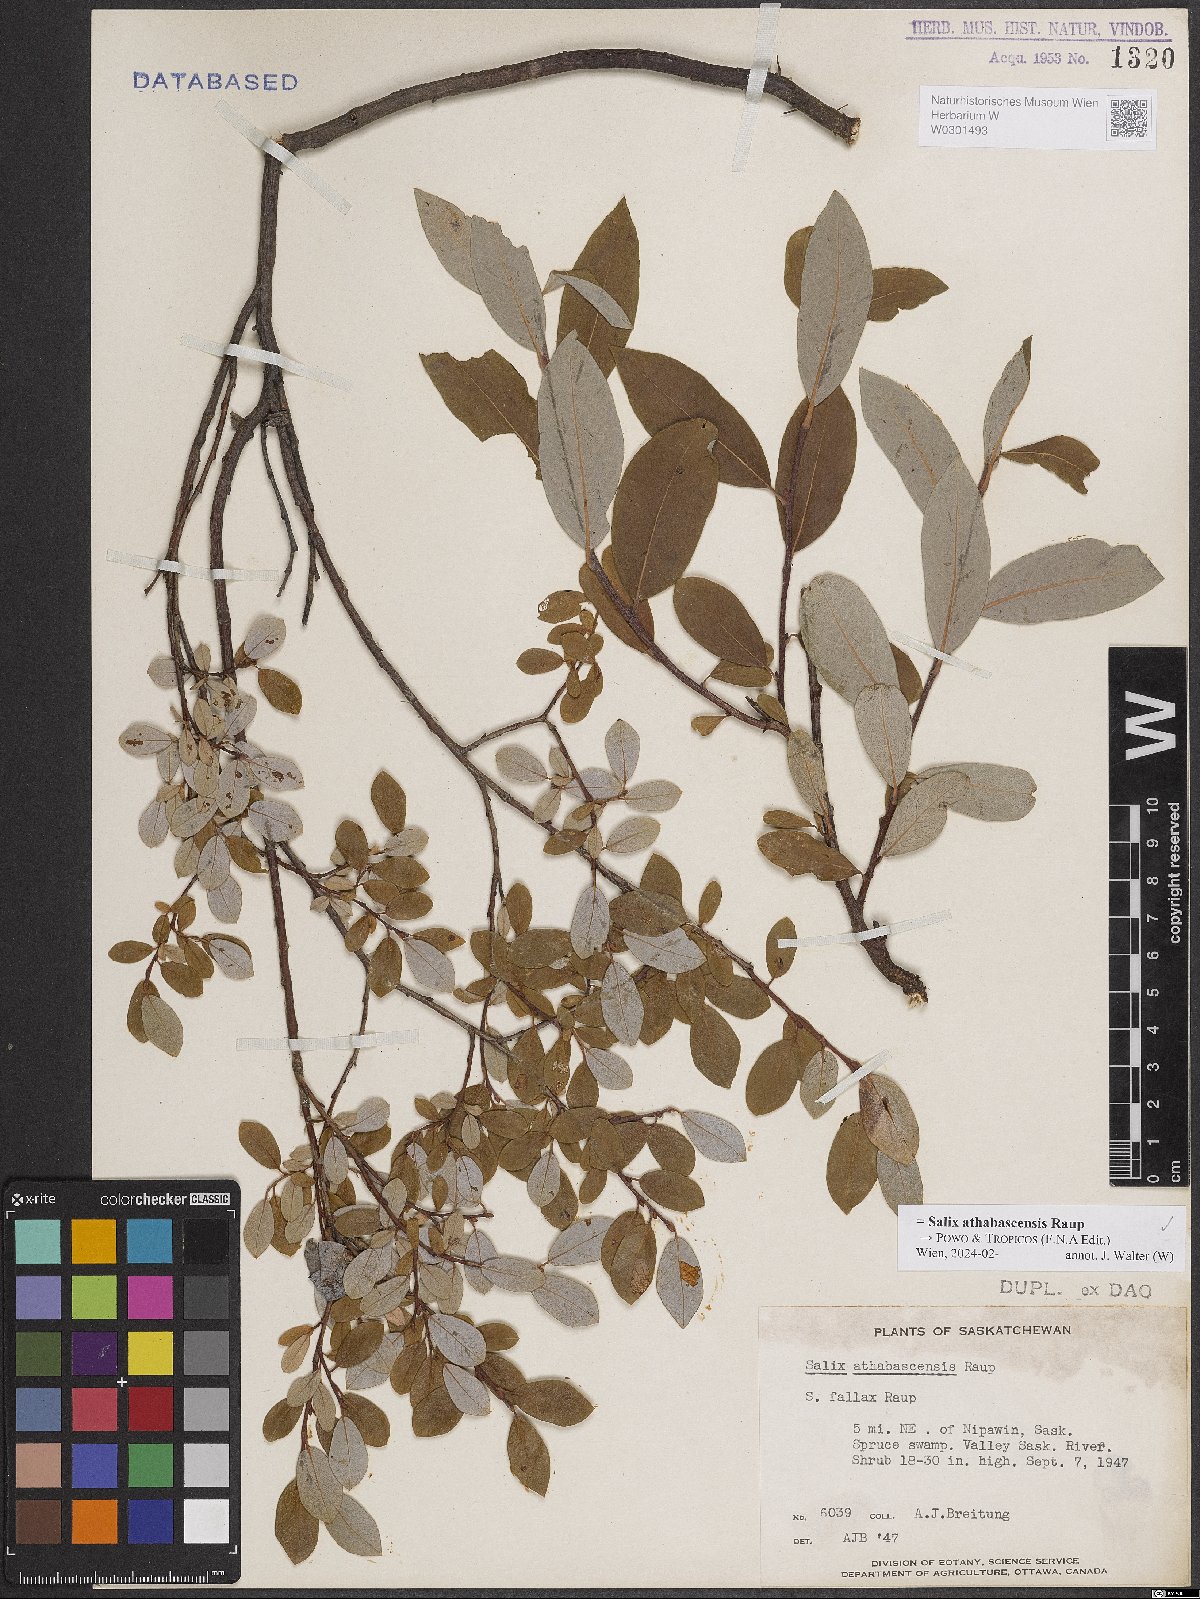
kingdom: Plantae
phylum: Tracheophyta
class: Magnoliopsida
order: Malpighiales
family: Salicaceae
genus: Salix
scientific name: Salix athabascensis
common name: Athabasca willow
